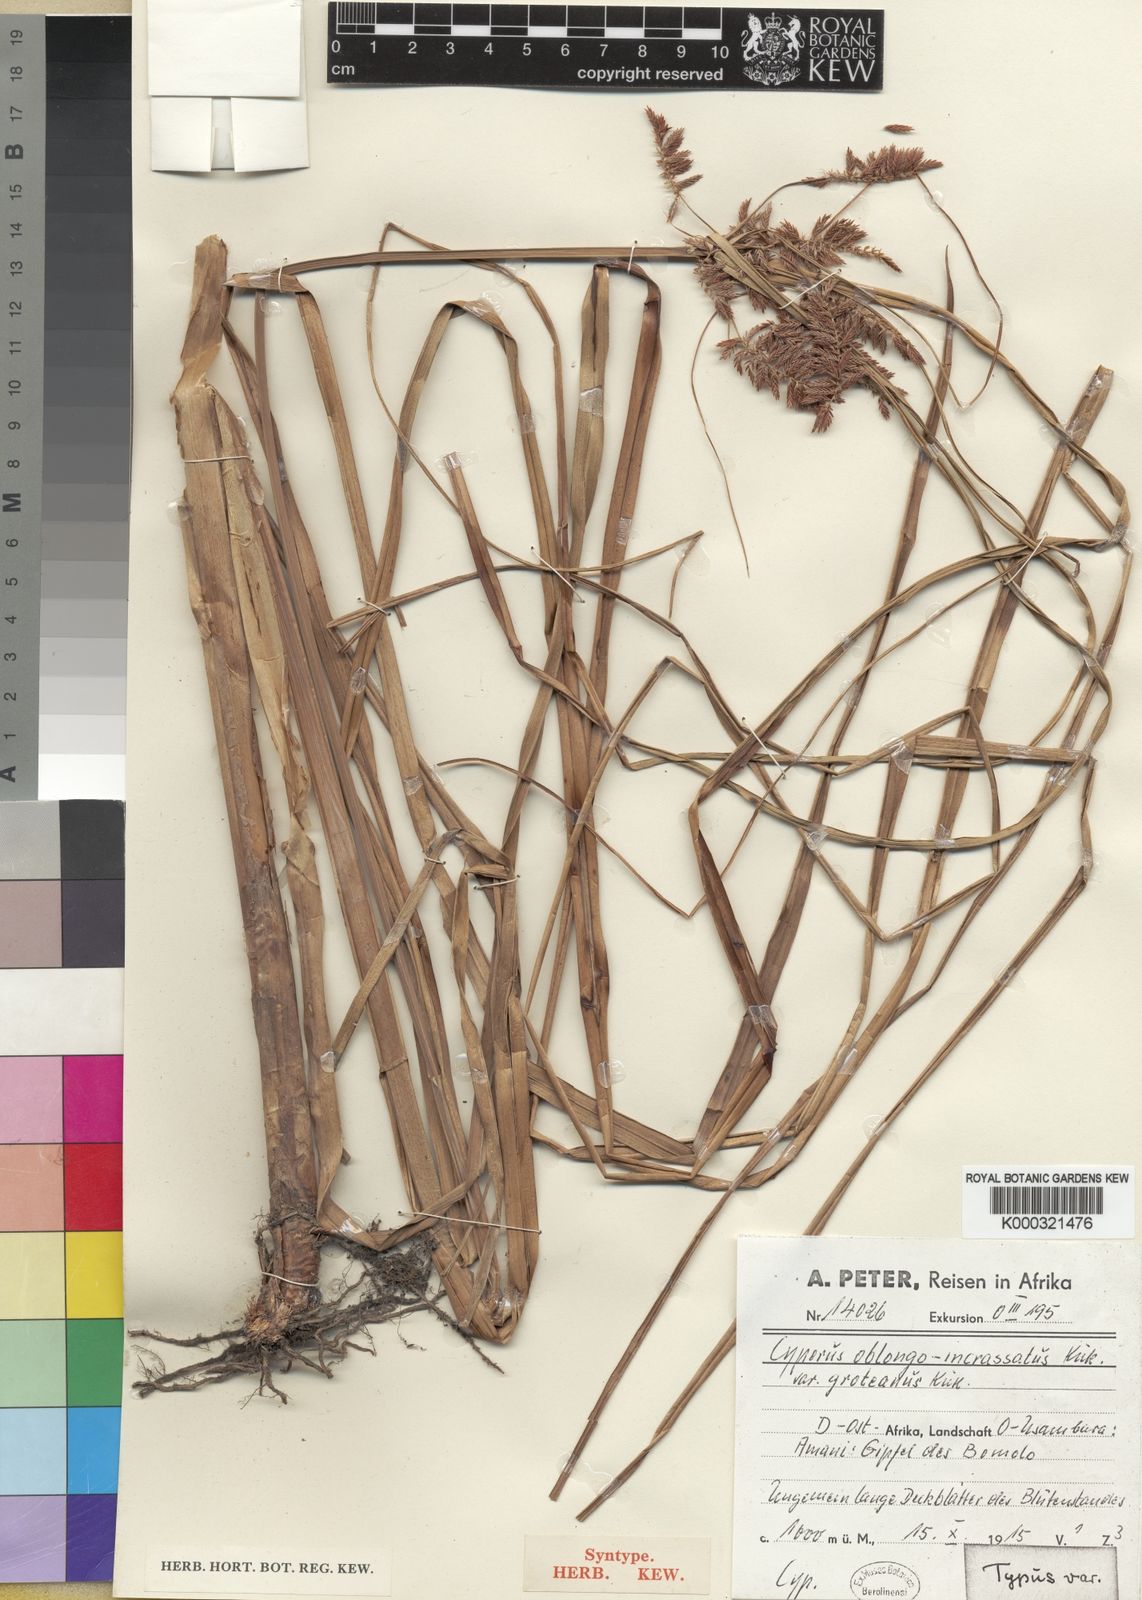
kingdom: Plantae
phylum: Tracheophyta
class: Liliopsida
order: Poales
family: Cyperaceae
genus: Cyperus
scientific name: Cyperus
